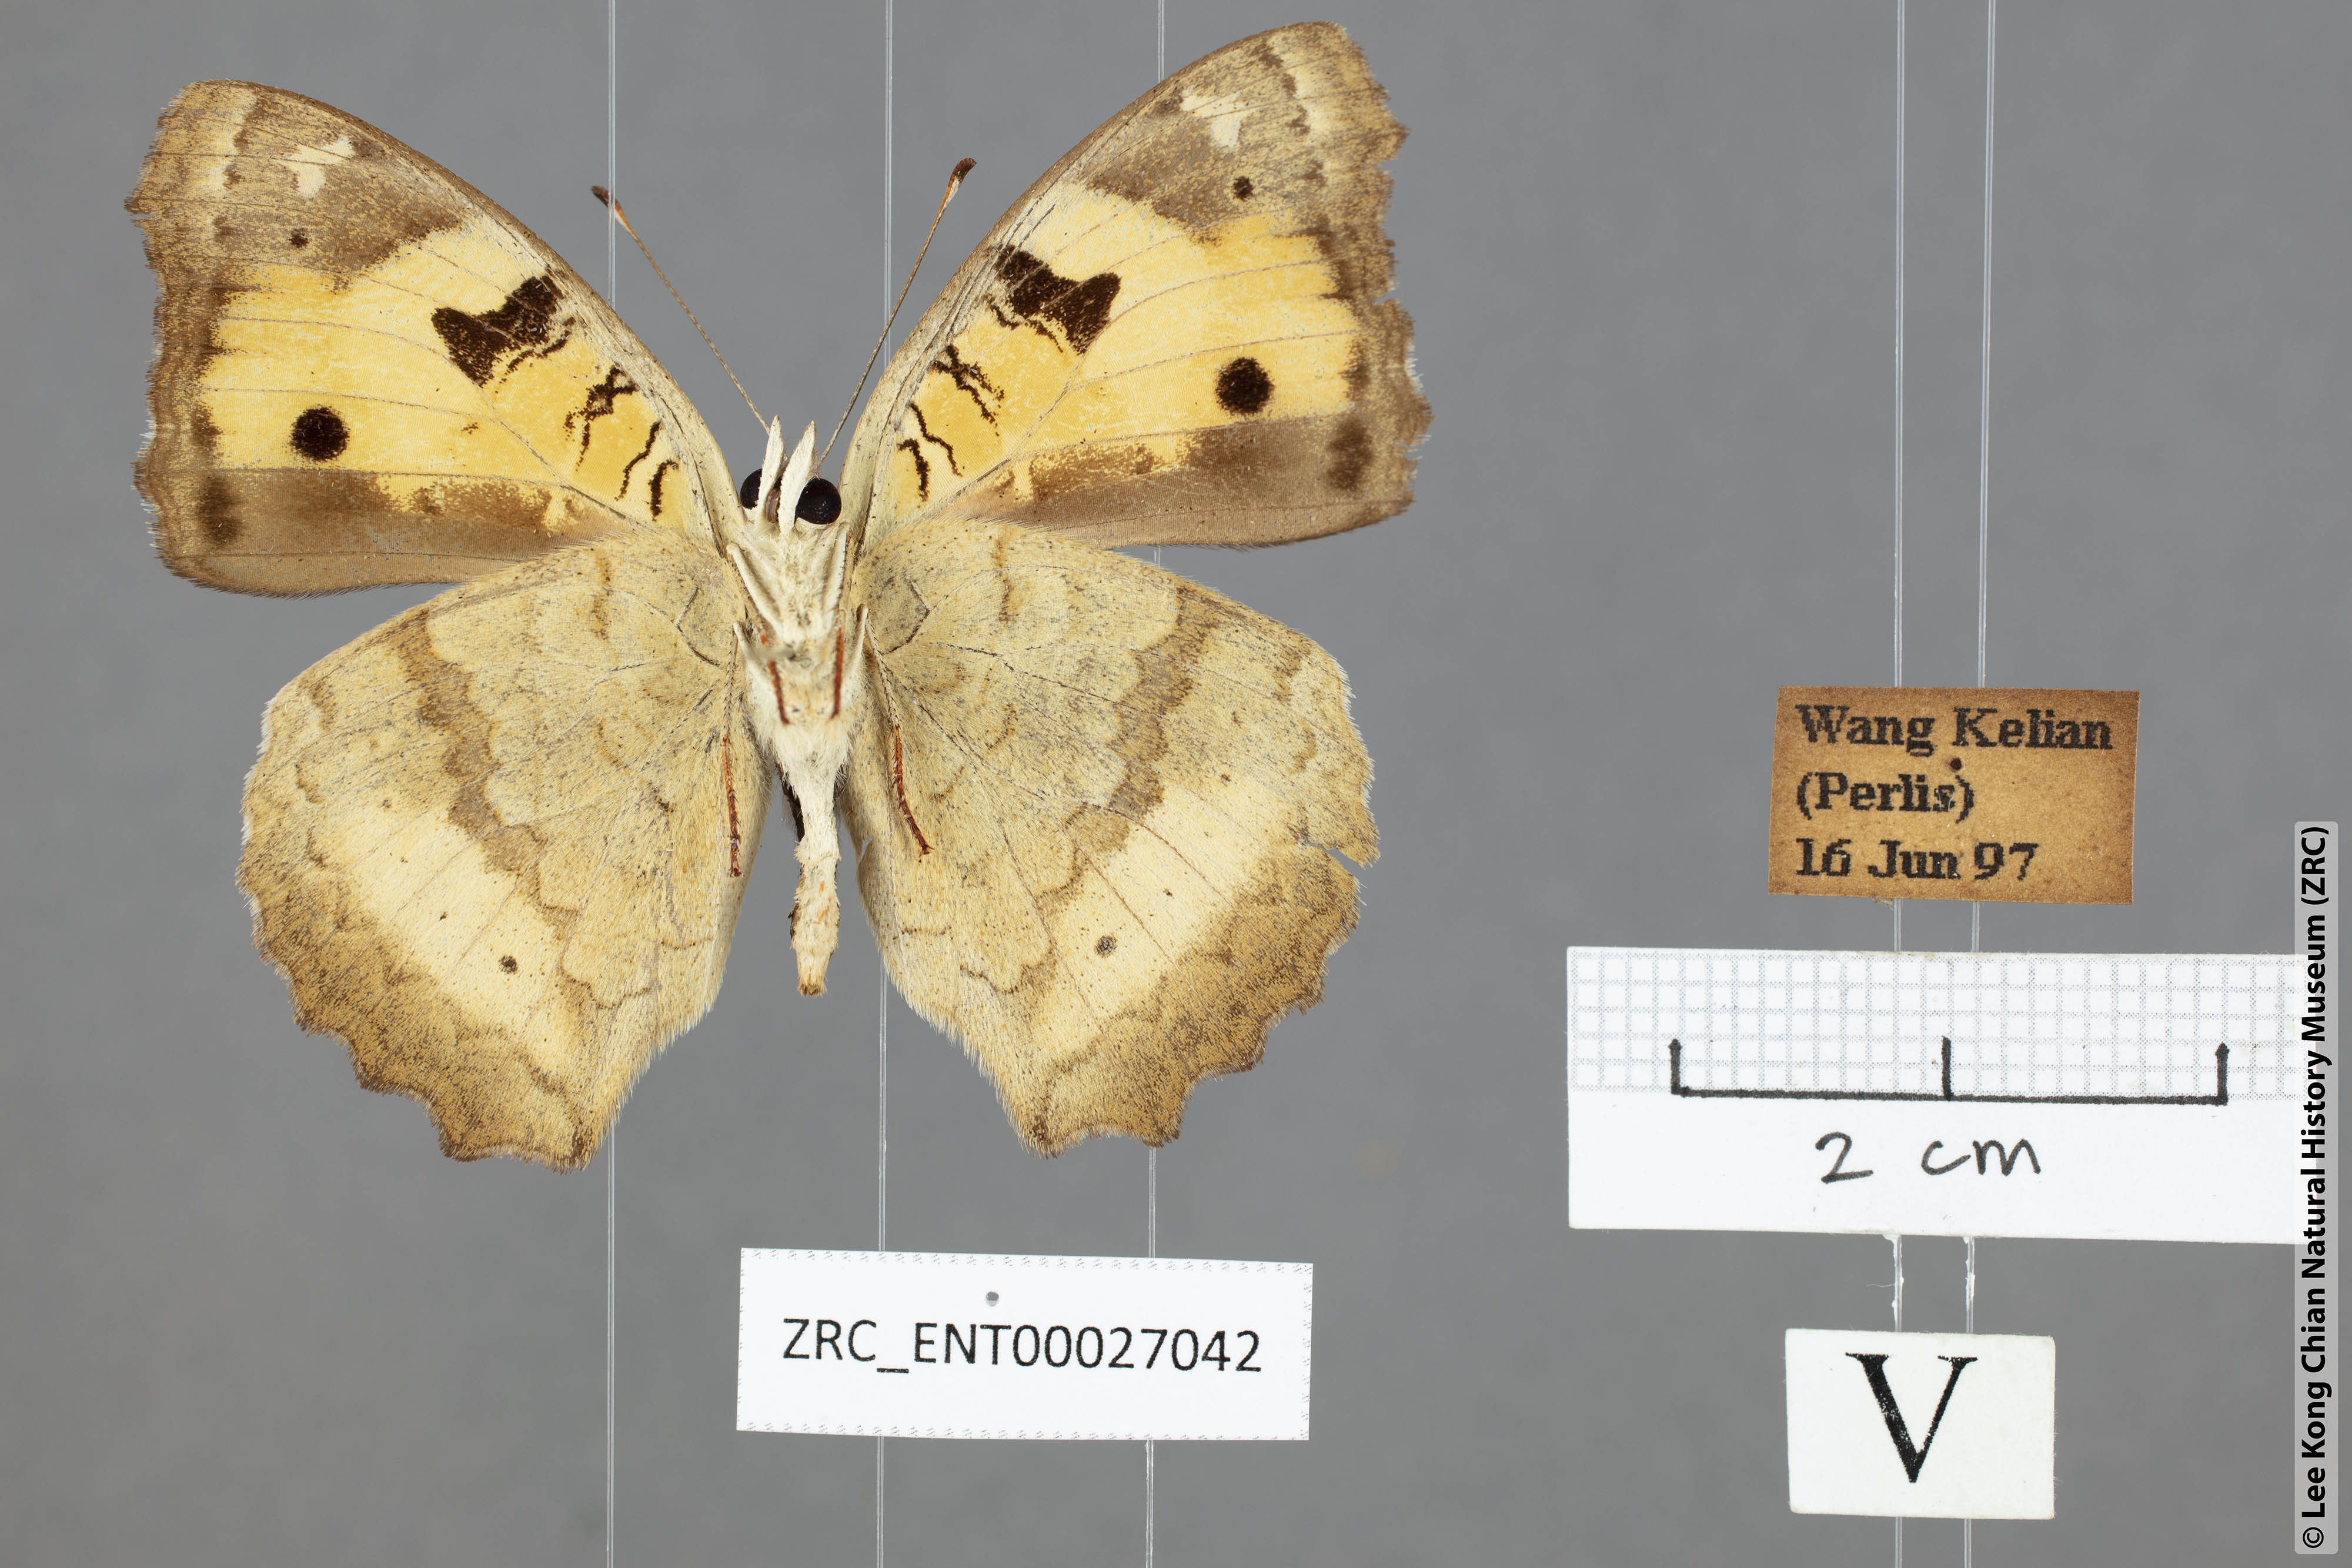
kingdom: Animalia
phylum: Arthropoda
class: Insecta
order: Lepidoptera
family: Nymphalidae
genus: Junonia
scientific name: Junonia hierta
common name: Yellow pansy
